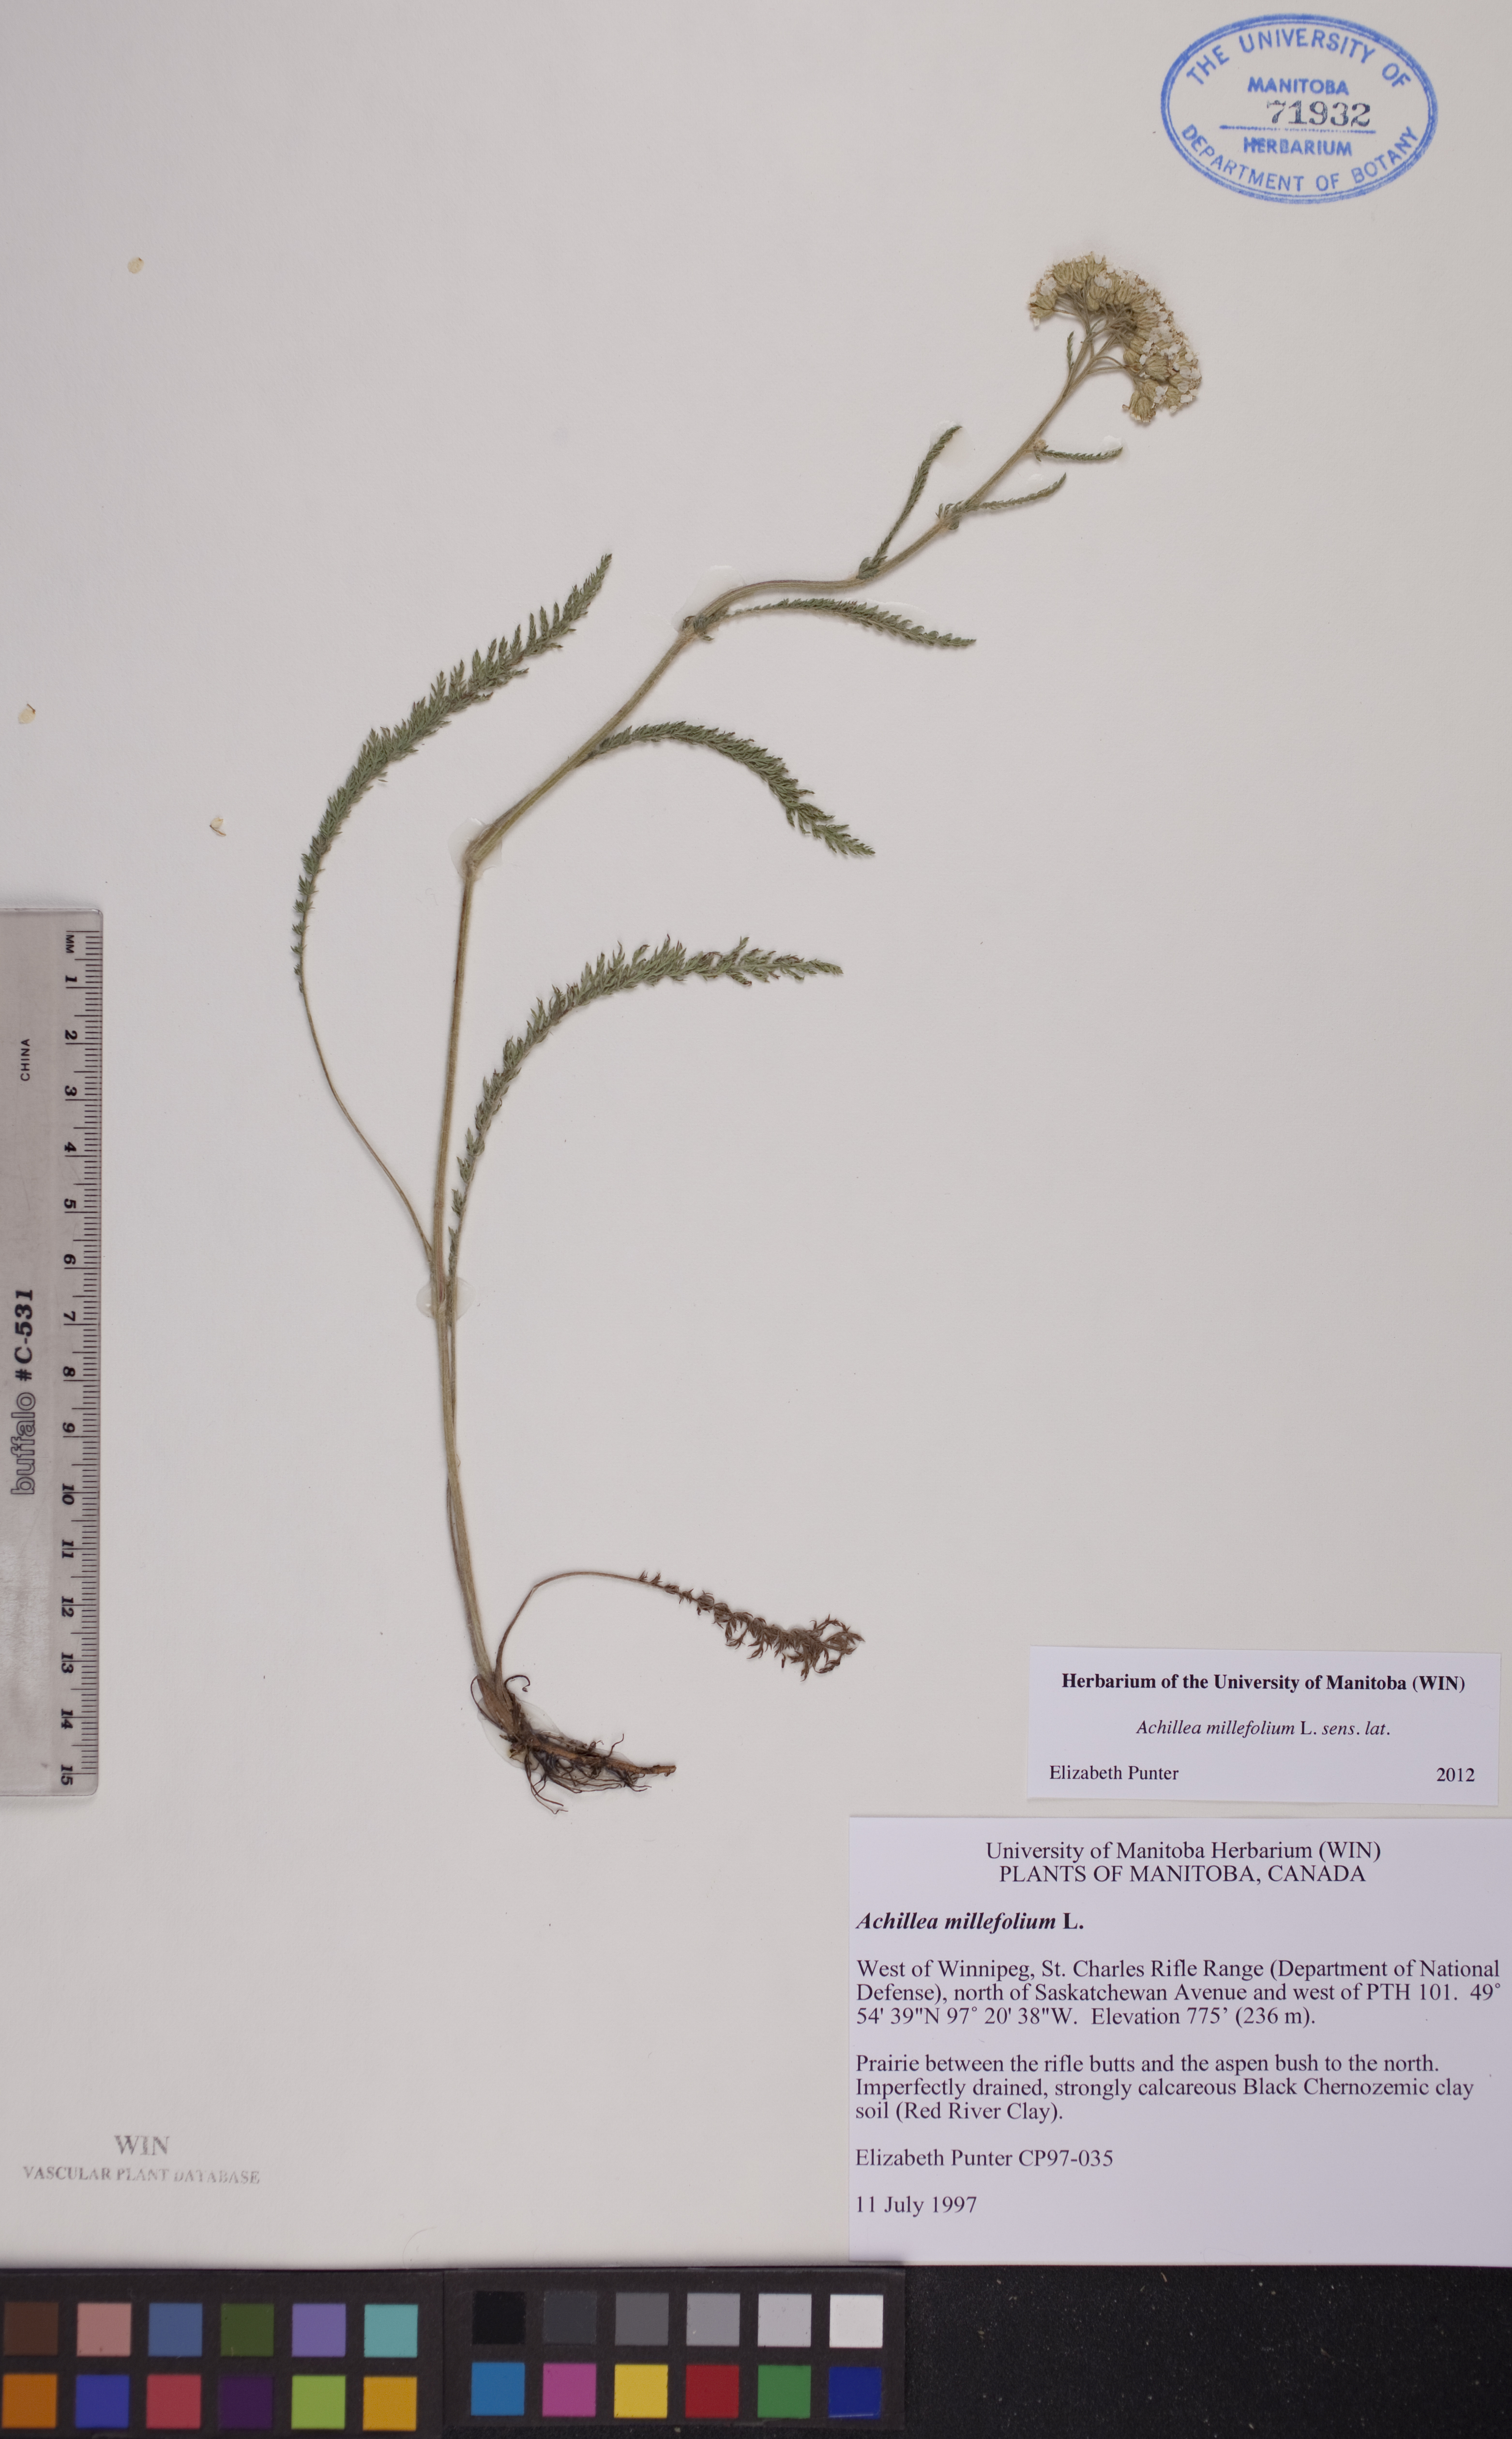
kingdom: Plantae
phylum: Tracheophyta
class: Magnoliopsida
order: Asterales
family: Asteraceae
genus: Achillea
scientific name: Achillea millefolium
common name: Yarrow
